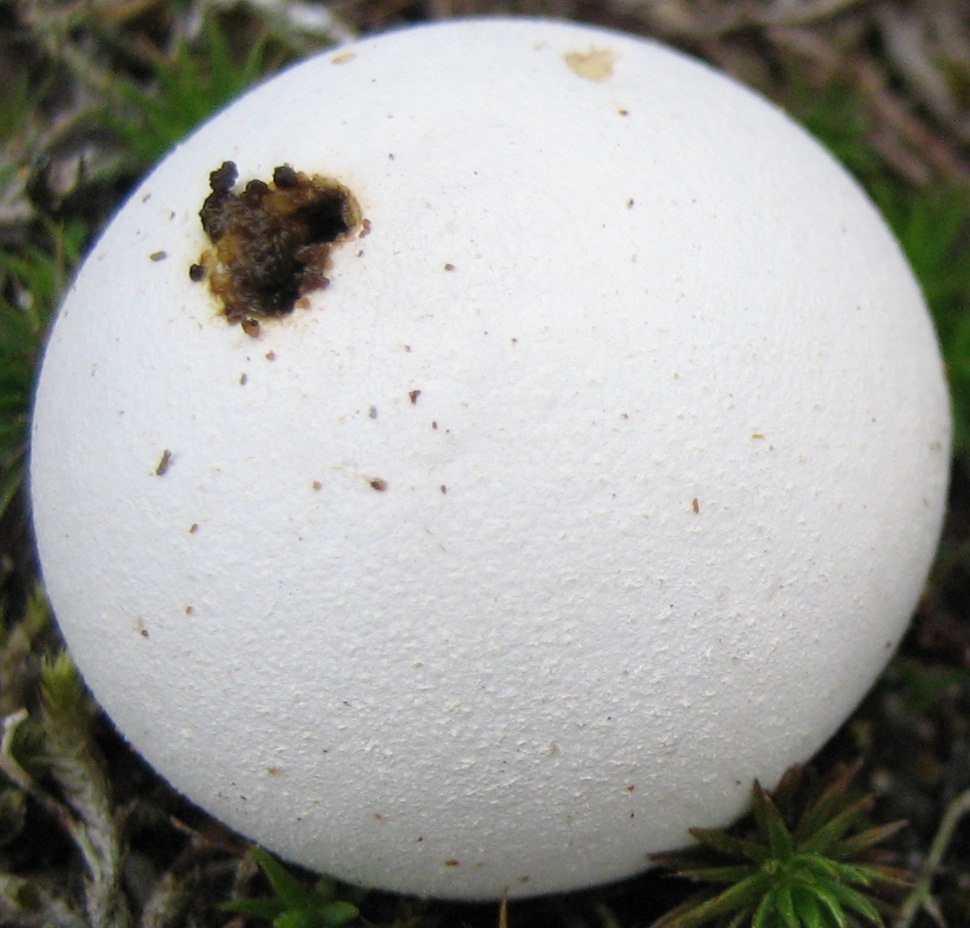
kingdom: Fungi
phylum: Basidiomycota
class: Agaricomycetes
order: Agaricales
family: Lycoperdaceae
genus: Bovista
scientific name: Bovista
